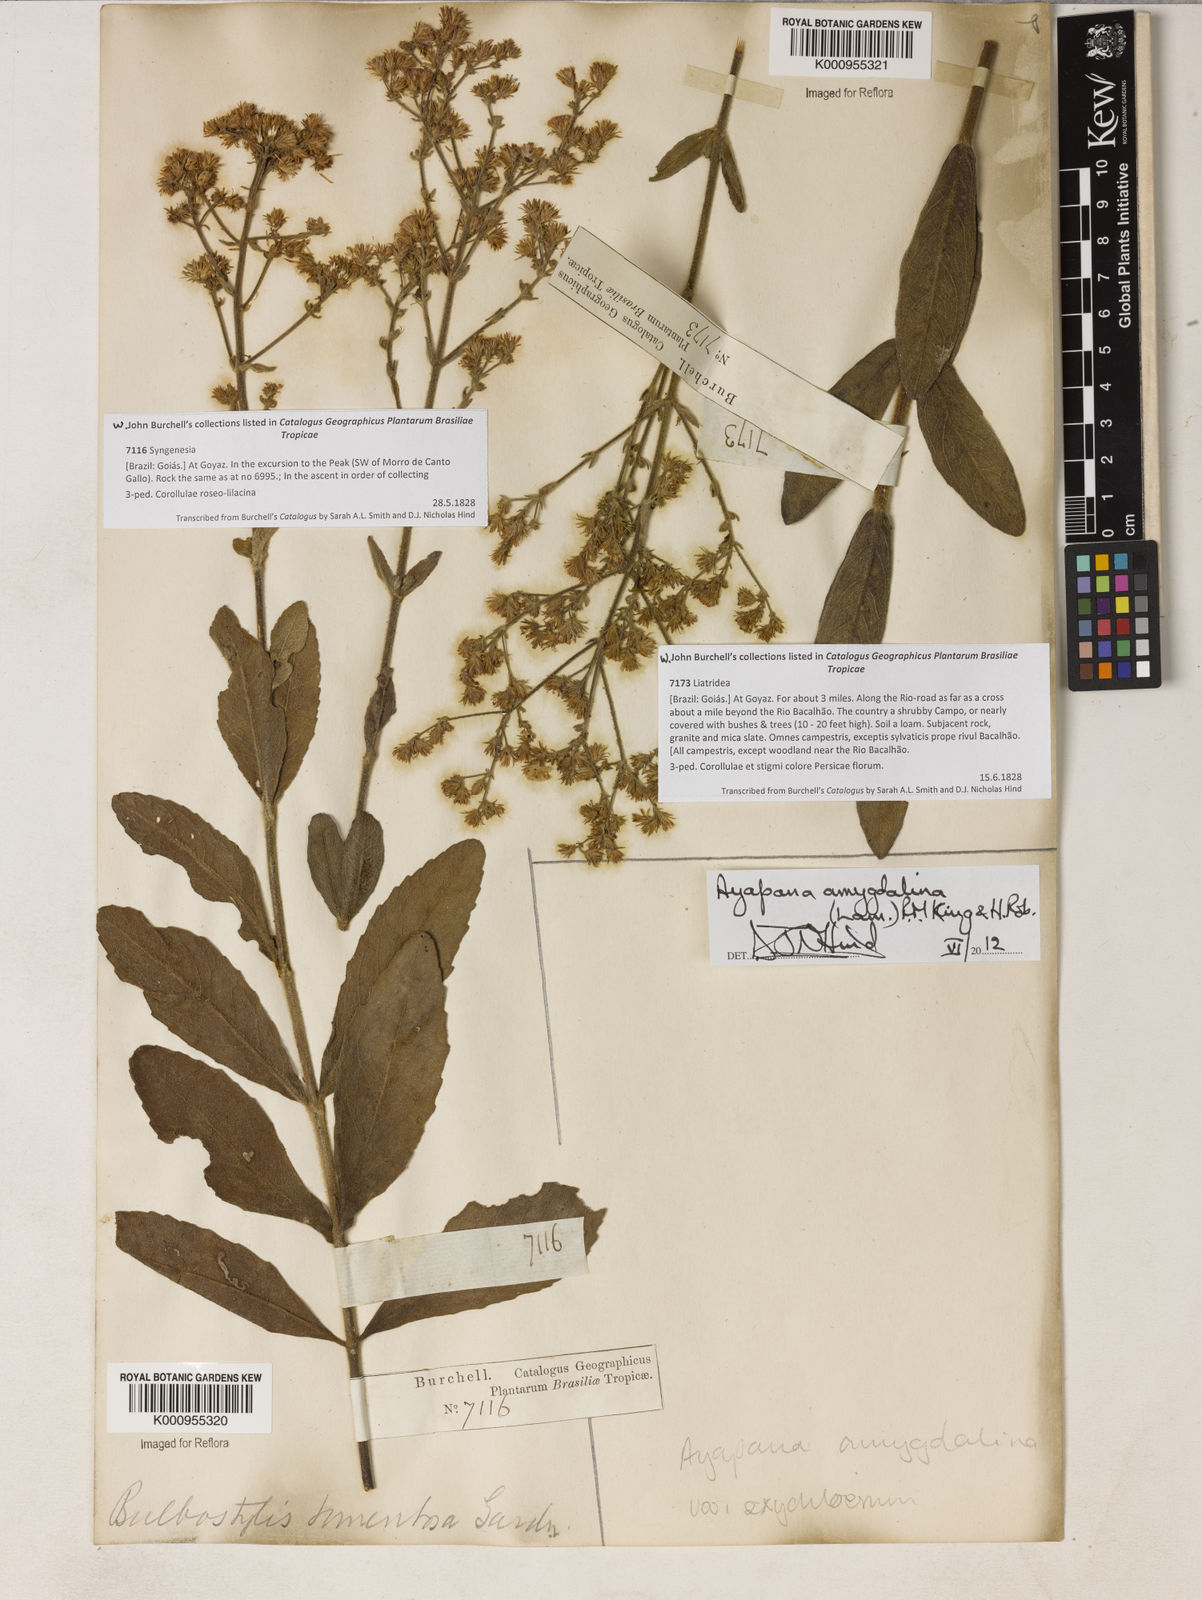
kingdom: Plantae
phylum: Tracheophyta
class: Magnoliopsida
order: Asterales
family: Asteraceae
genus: Ayapana
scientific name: Ayapana amygdalina
